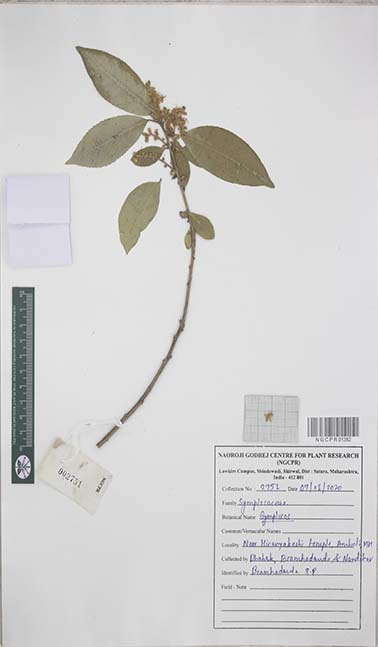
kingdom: Plantae
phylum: Tracheophyta
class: Magnoliopsida
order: Ericales
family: Symplocaceae
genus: Symplocos
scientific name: Symplocos
